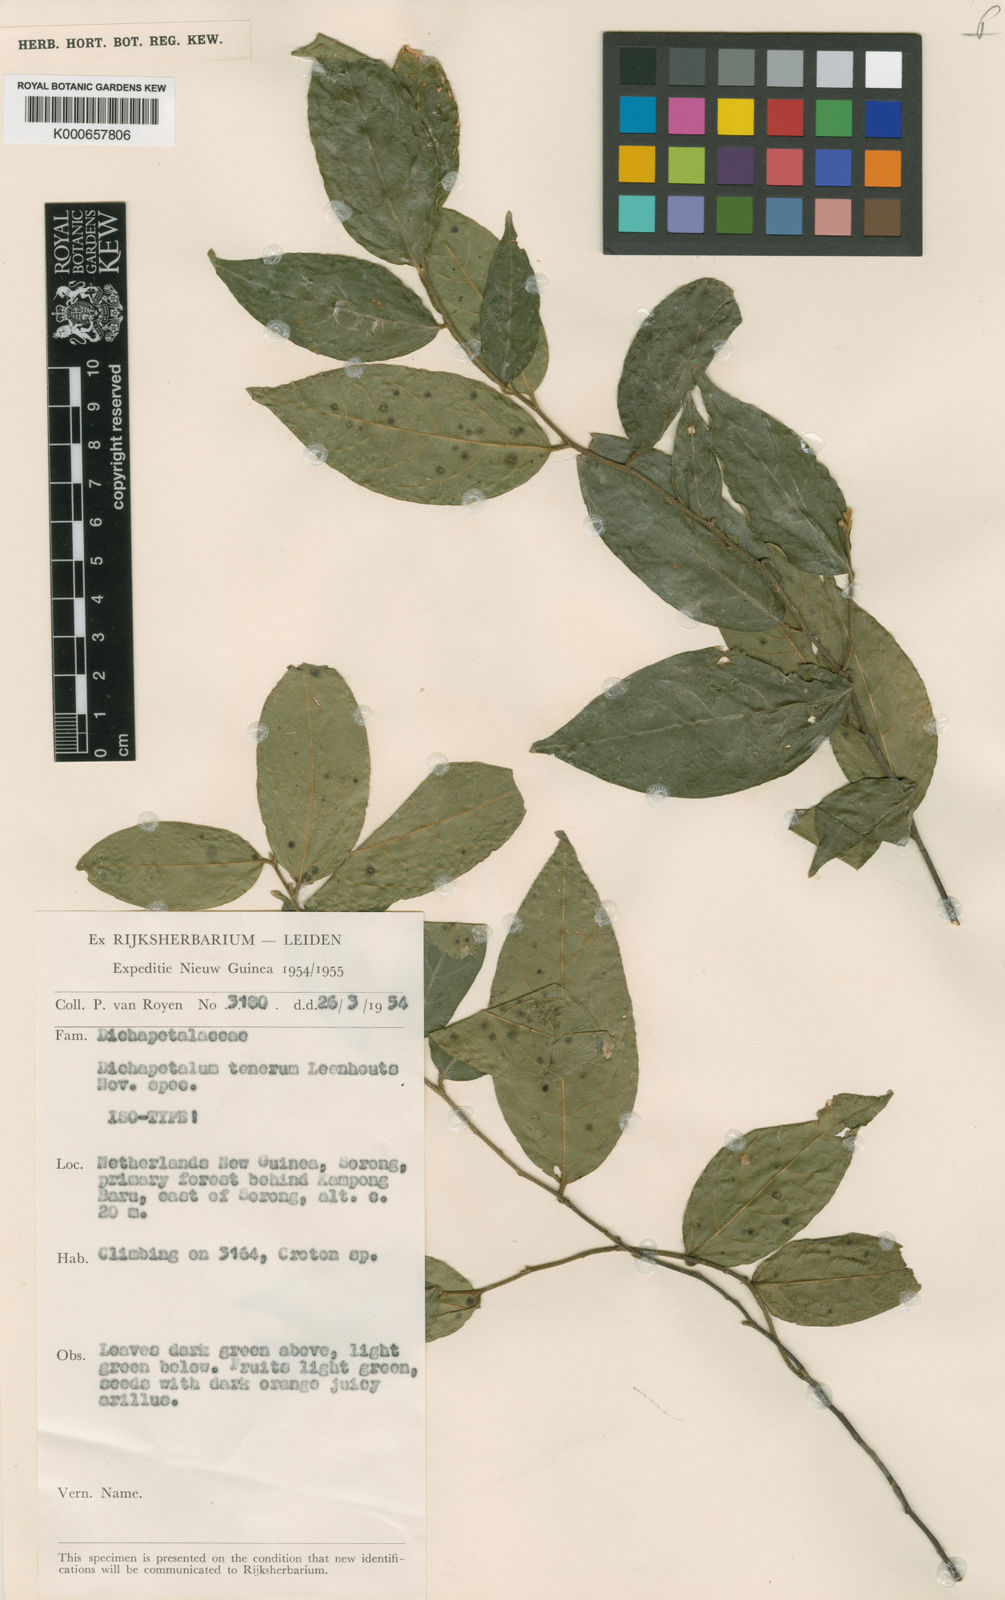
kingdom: Plantae
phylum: Tracheophyta
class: Magnoliopsida
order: Malpighiales
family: Dichapetalaceae
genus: Dichapetalum
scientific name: Dichapetalum tenerum
